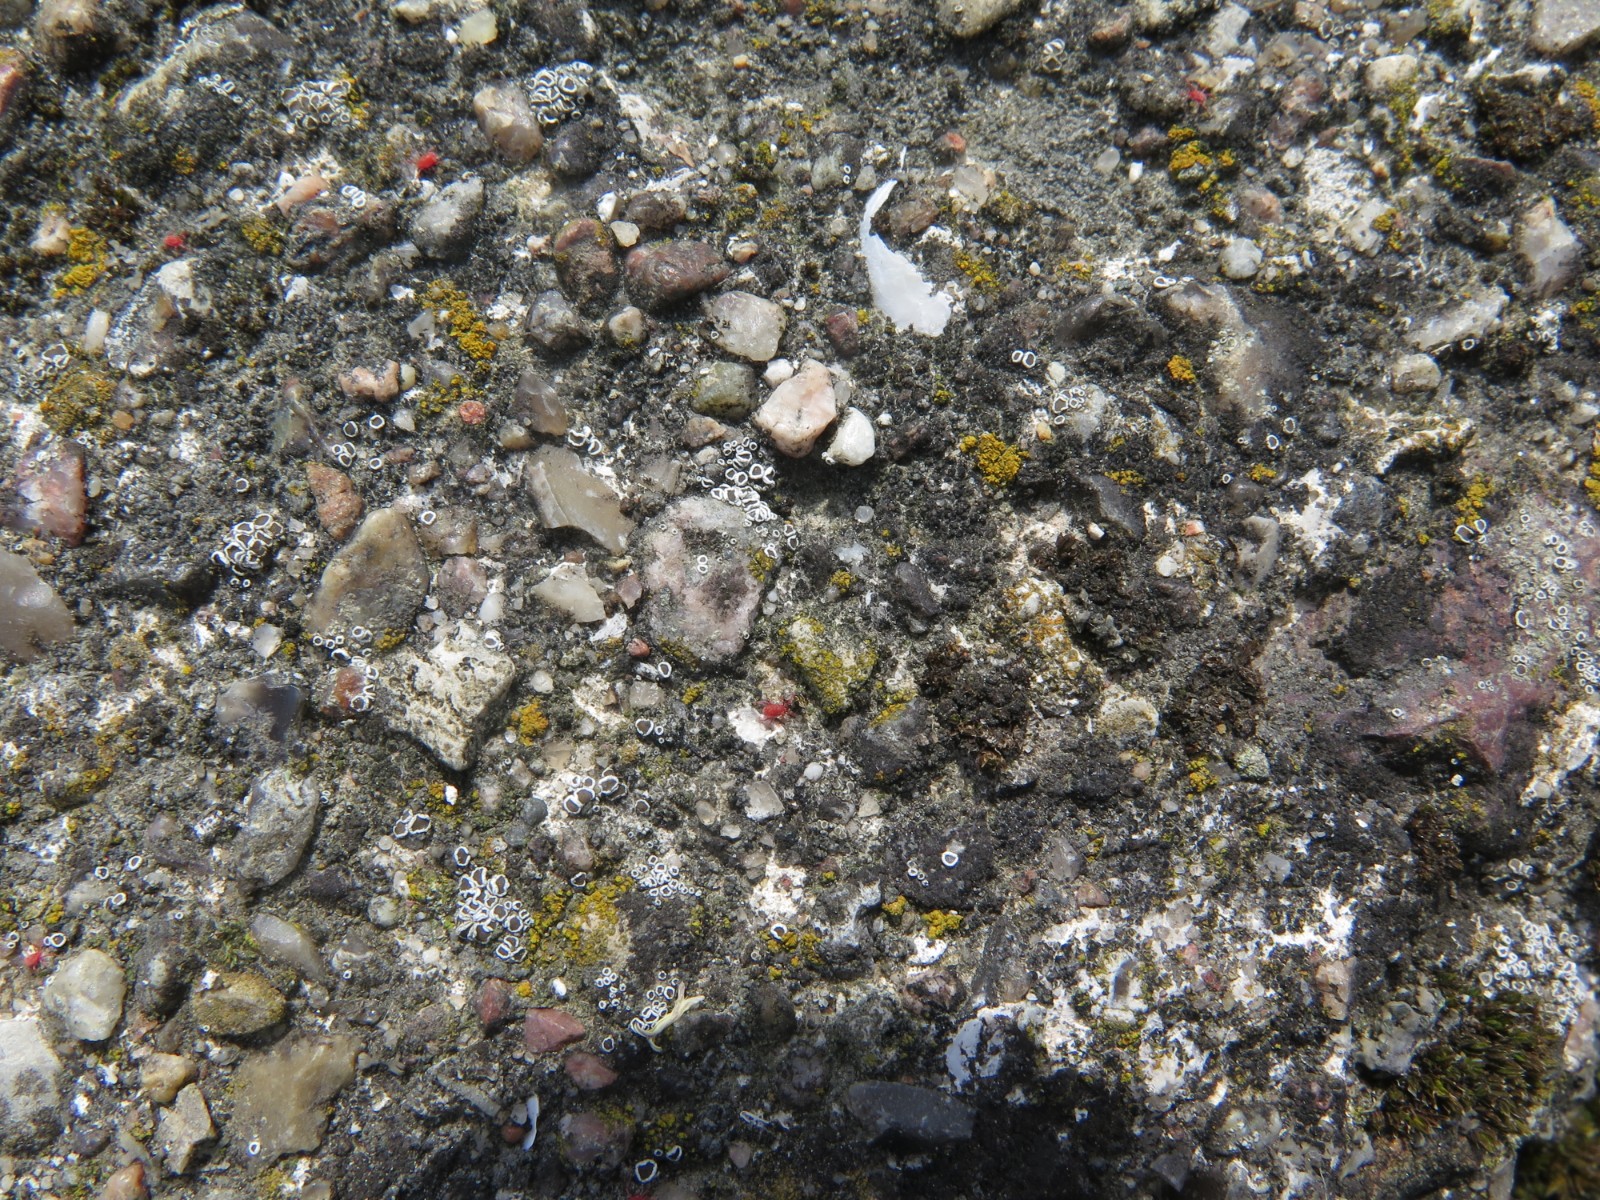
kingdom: Fungi
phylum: Ascomycota
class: Lecanoromycetes
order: Lecanorales
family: Lecanoraceae
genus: Polyozosia
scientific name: Polyozosia dispersa
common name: spredt kantskivelav
